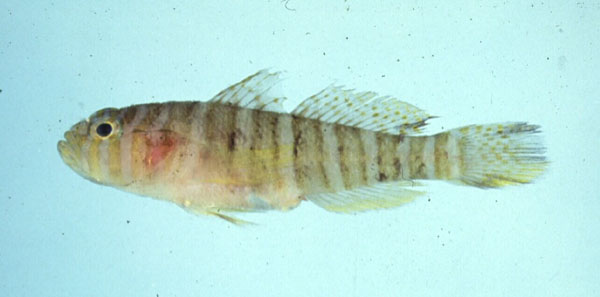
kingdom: Animalia
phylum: Chordata
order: Perciformes
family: Gobiidae
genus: Priolepis
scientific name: Priolepis cincta
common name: Banded reef-goby
